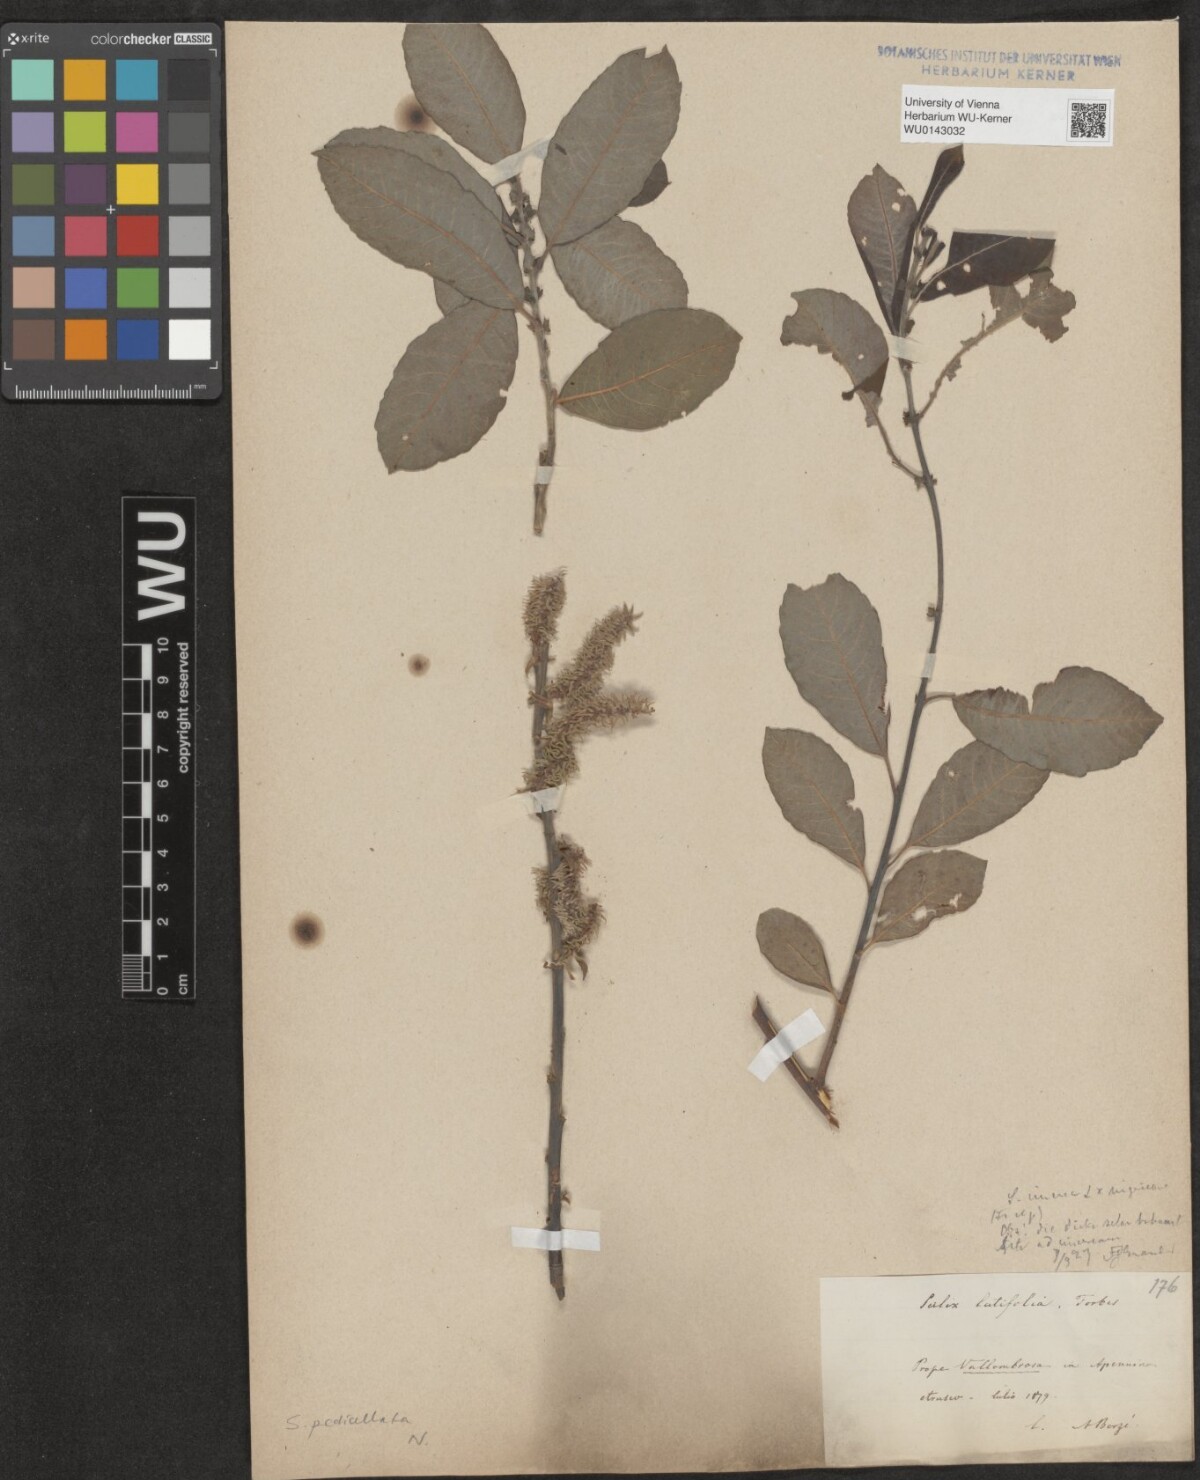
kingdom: Plantae
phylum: Tracheophyta
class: Magnoliopsida
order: Malpighiales
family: Salicaceae
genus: Salix
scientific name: Salix pedicellata
